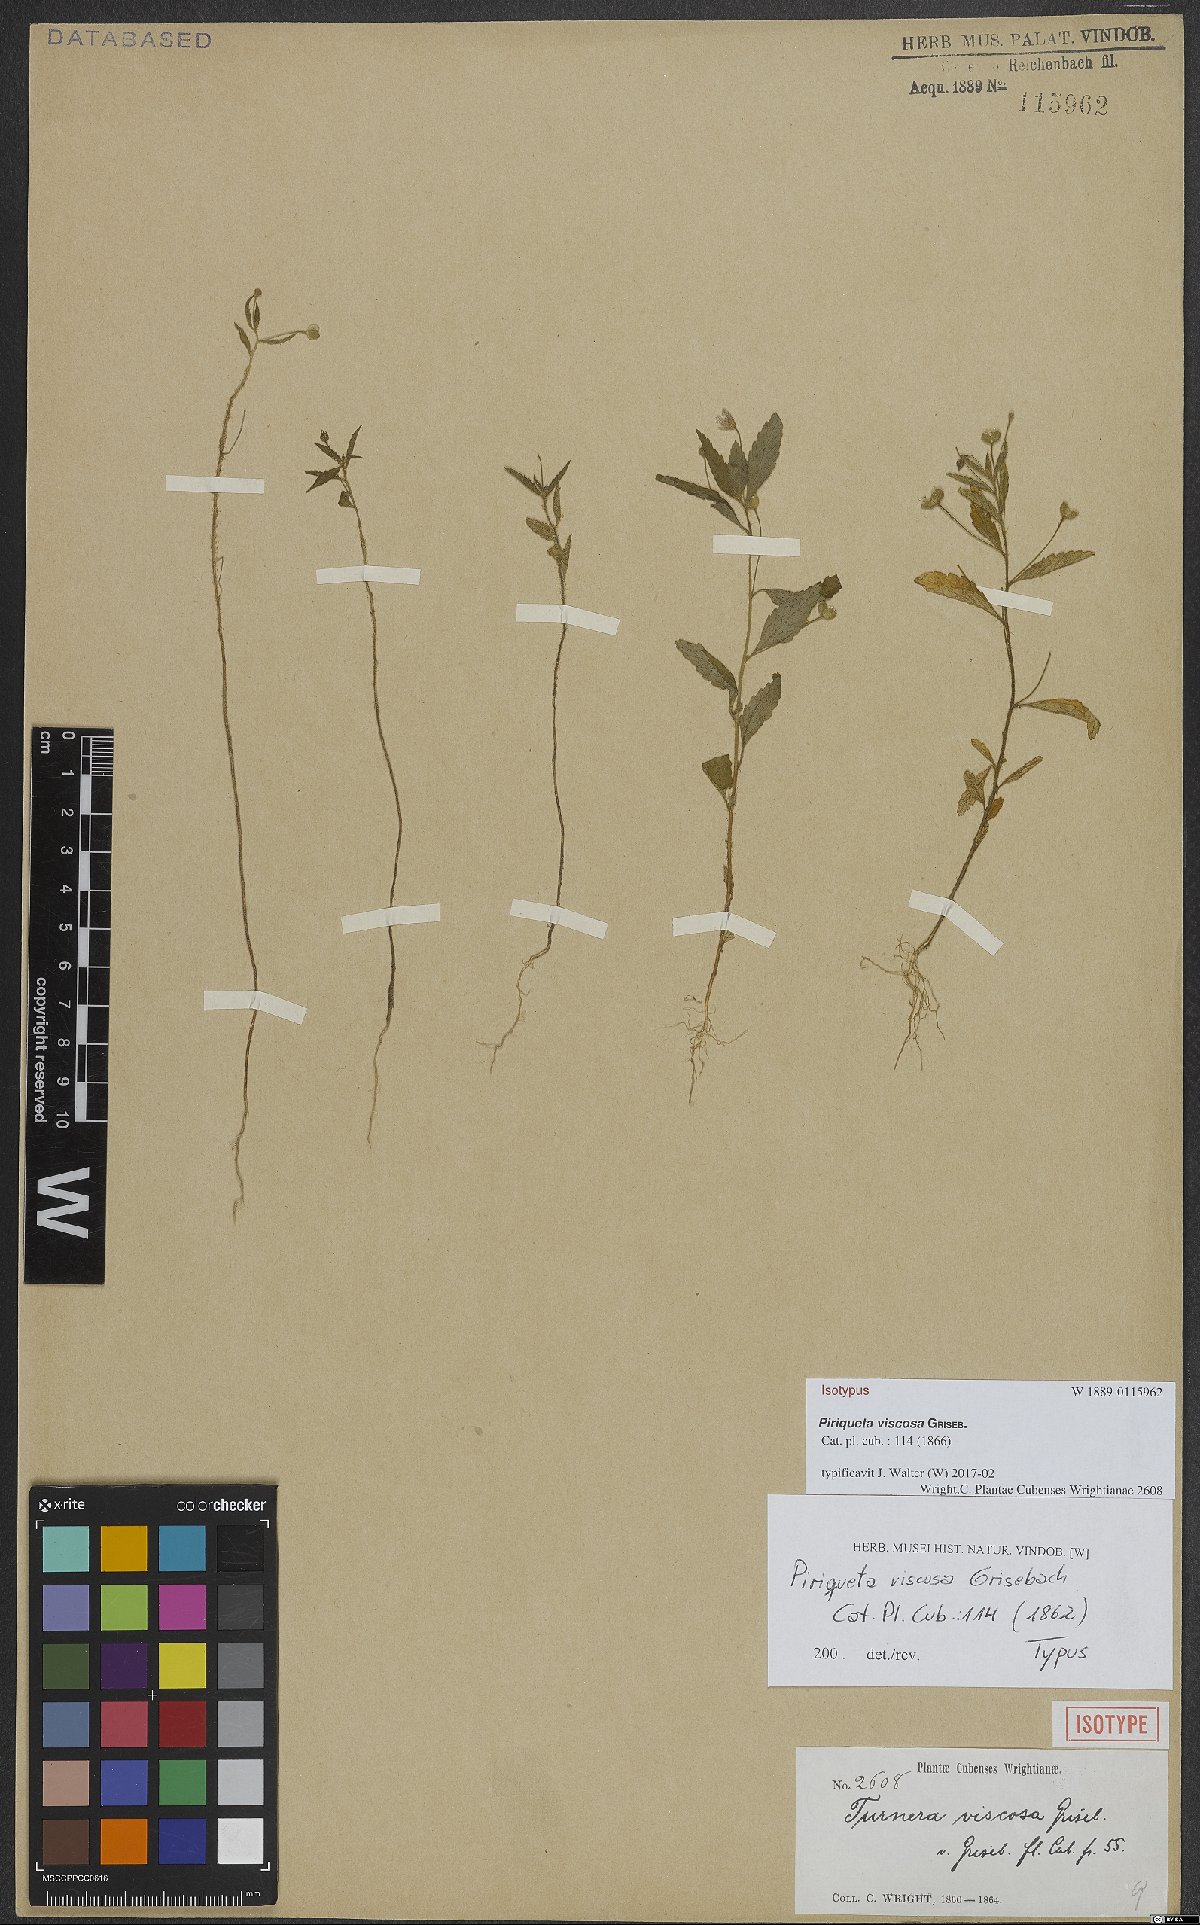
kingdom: Plantae
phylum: Tracheophyta
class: Magnoliopsida
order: Malpighiales
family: Turneraceae
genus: Piriqueta
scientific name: Piriqueta viscosa
